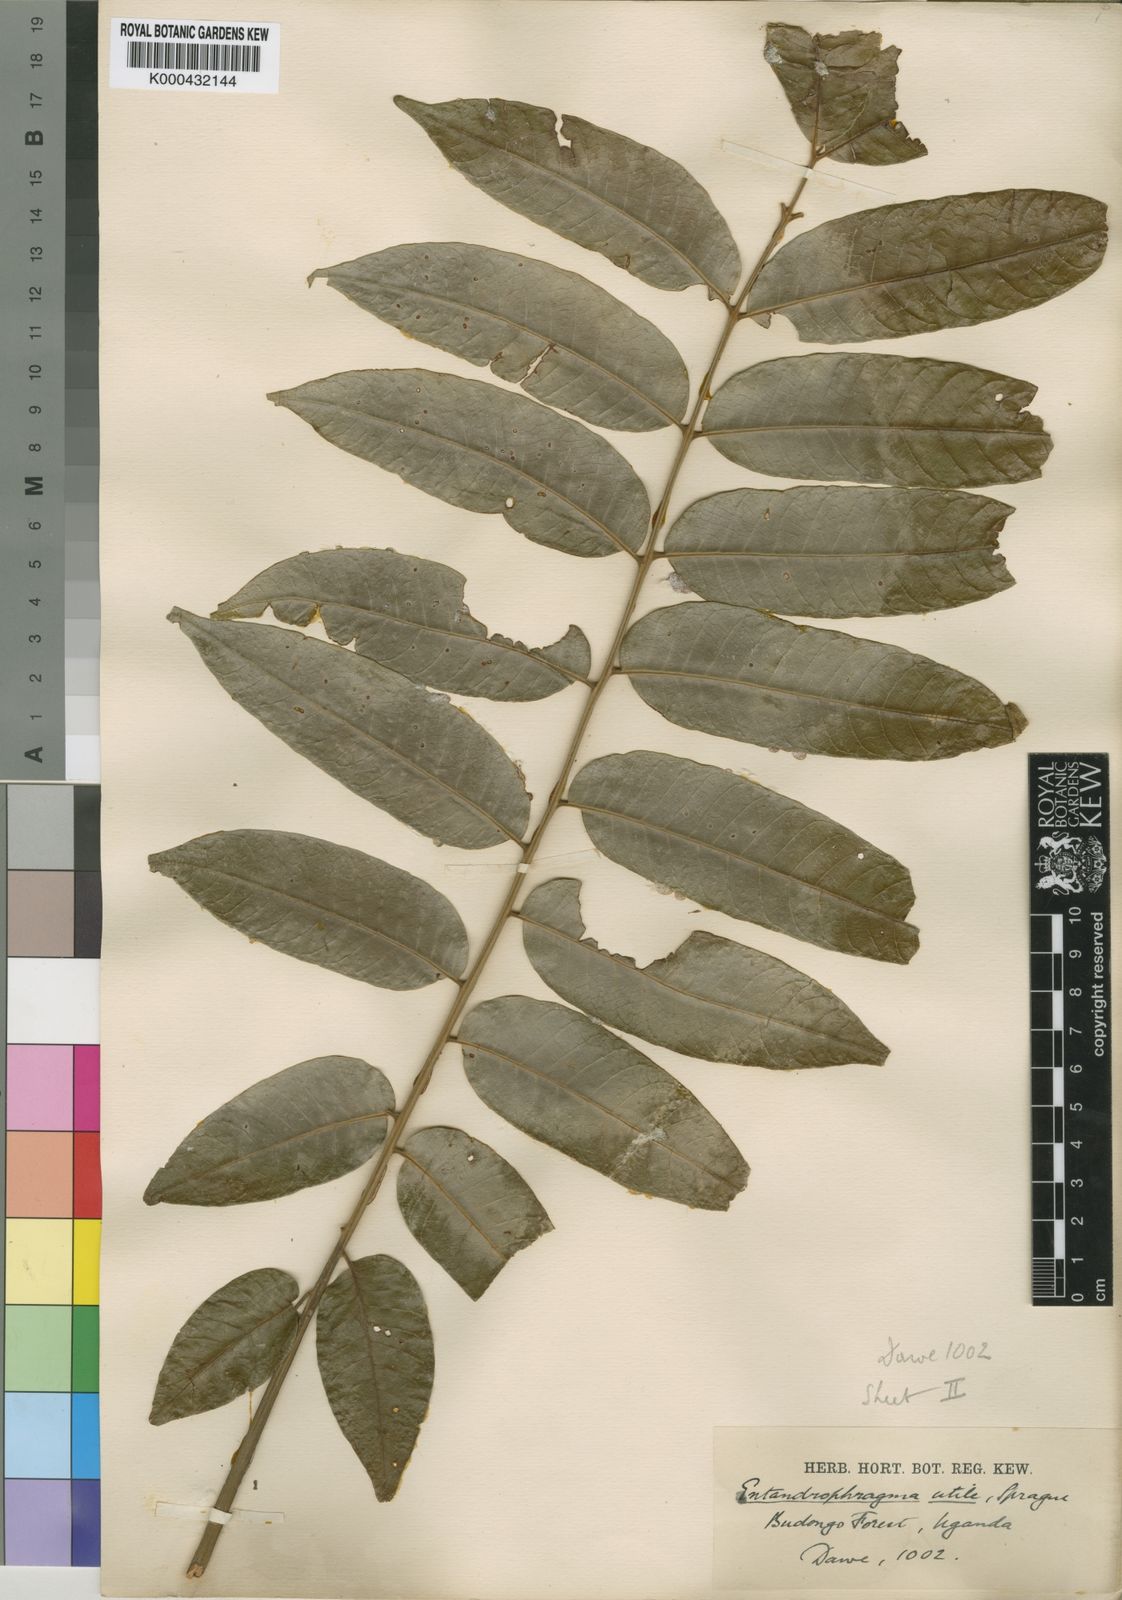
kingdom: Plantae
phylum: Tracheophyta
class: Magnoliopsida
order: Sapindales
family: Meliaceae
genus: Entandrophragma
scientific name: Entandrophragma utile
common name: Utile
